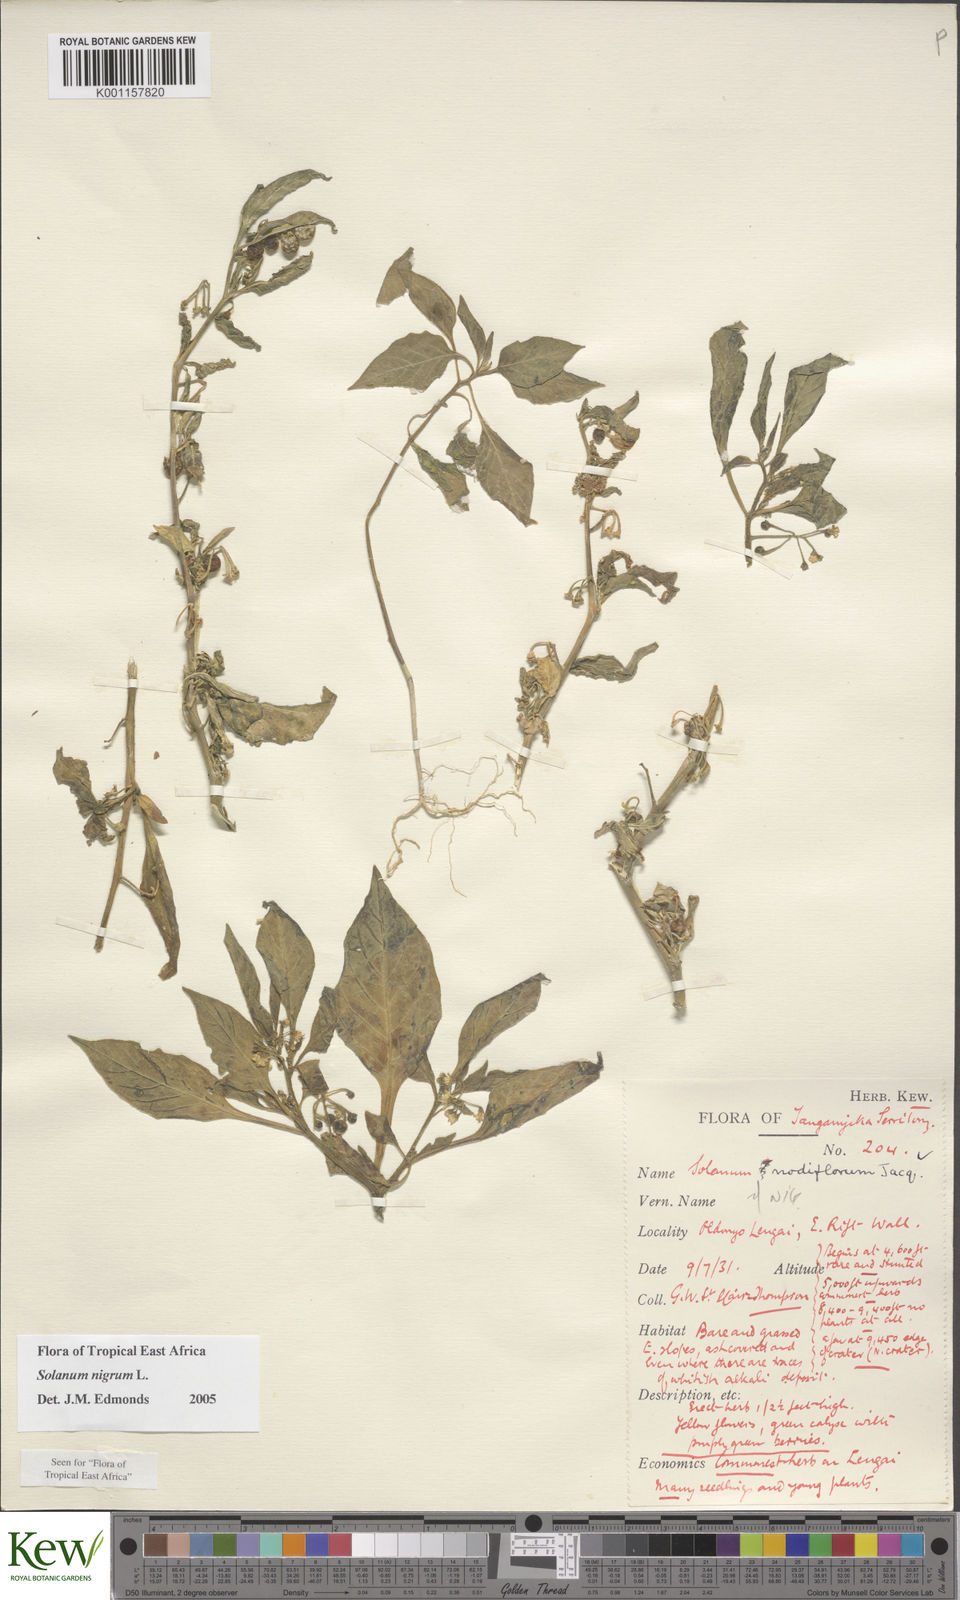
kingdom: Plantae
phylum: Tracheophyta
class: Magnoliopsida
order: Solanales
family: Solanaceae
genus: Solanum
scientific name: Solanum nigrum
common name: Black nightshade
